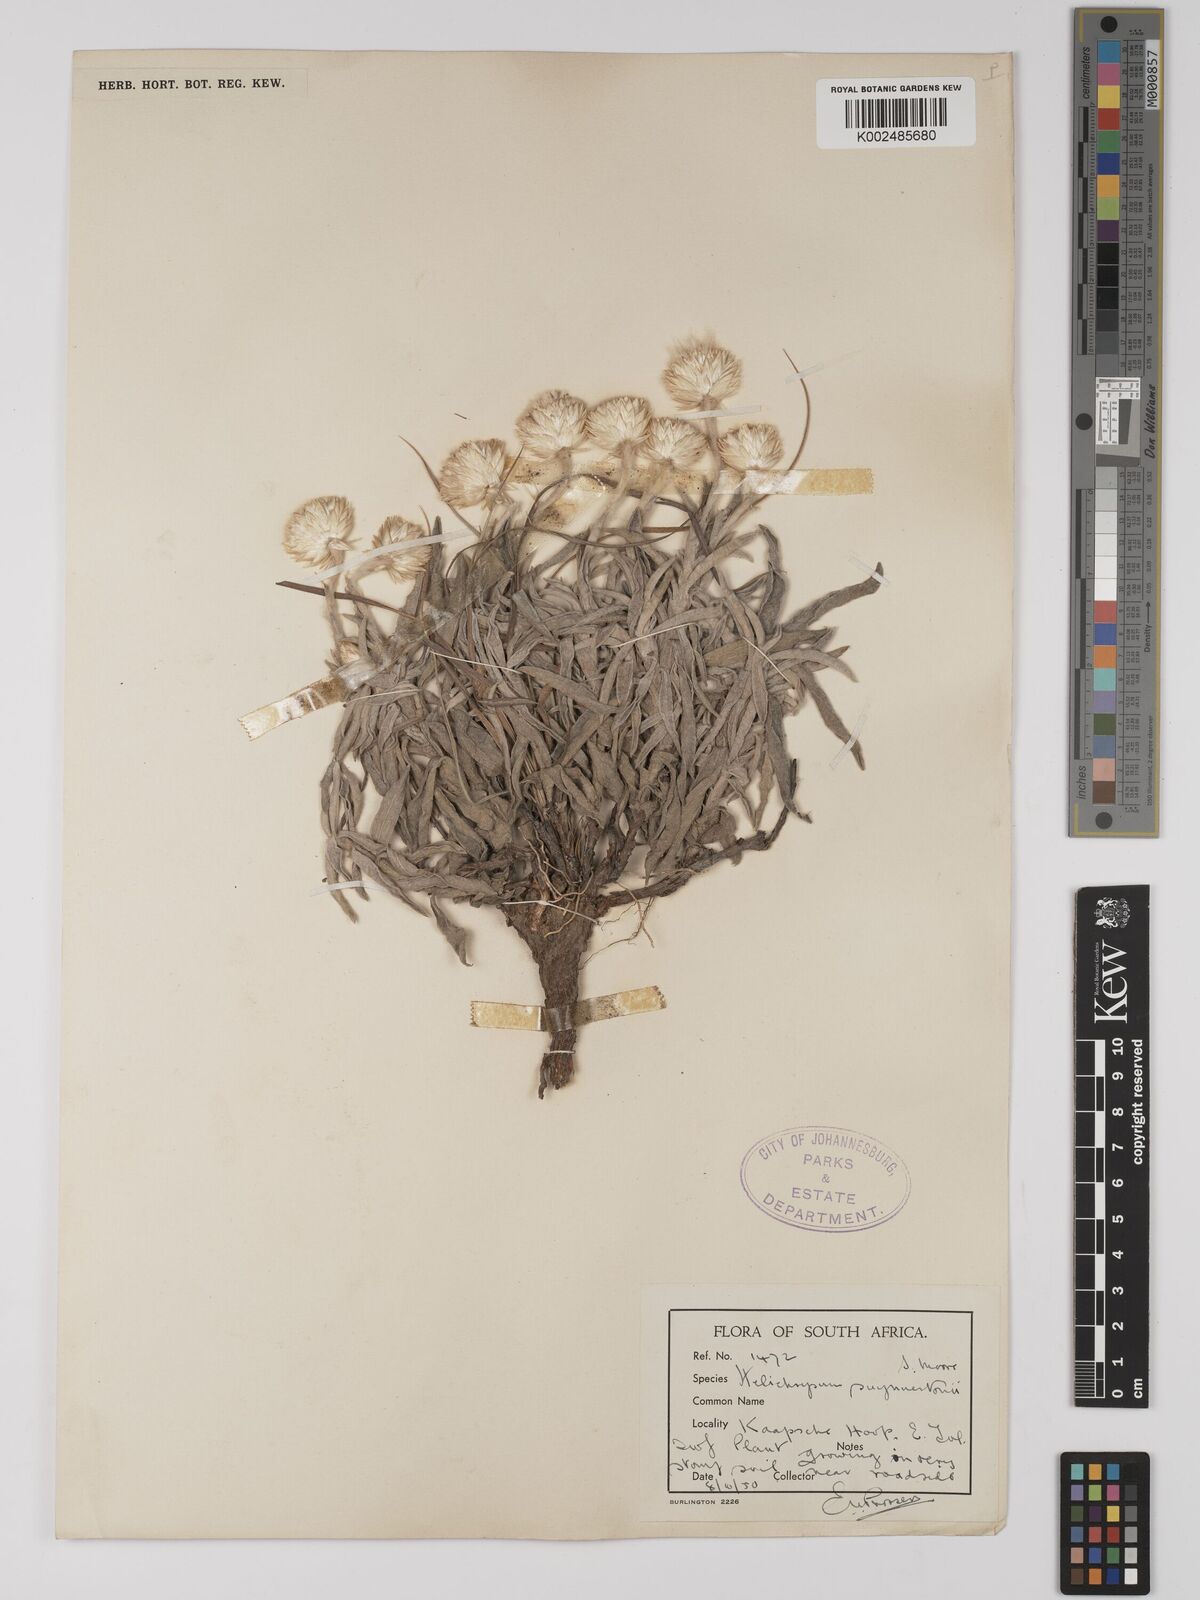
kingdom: Plantae
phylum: Tracheophyta
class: Magnoliopsida
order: Asterales
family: Asteraceae
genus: Helichrysum
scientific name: Helichrysum swynnertonii
